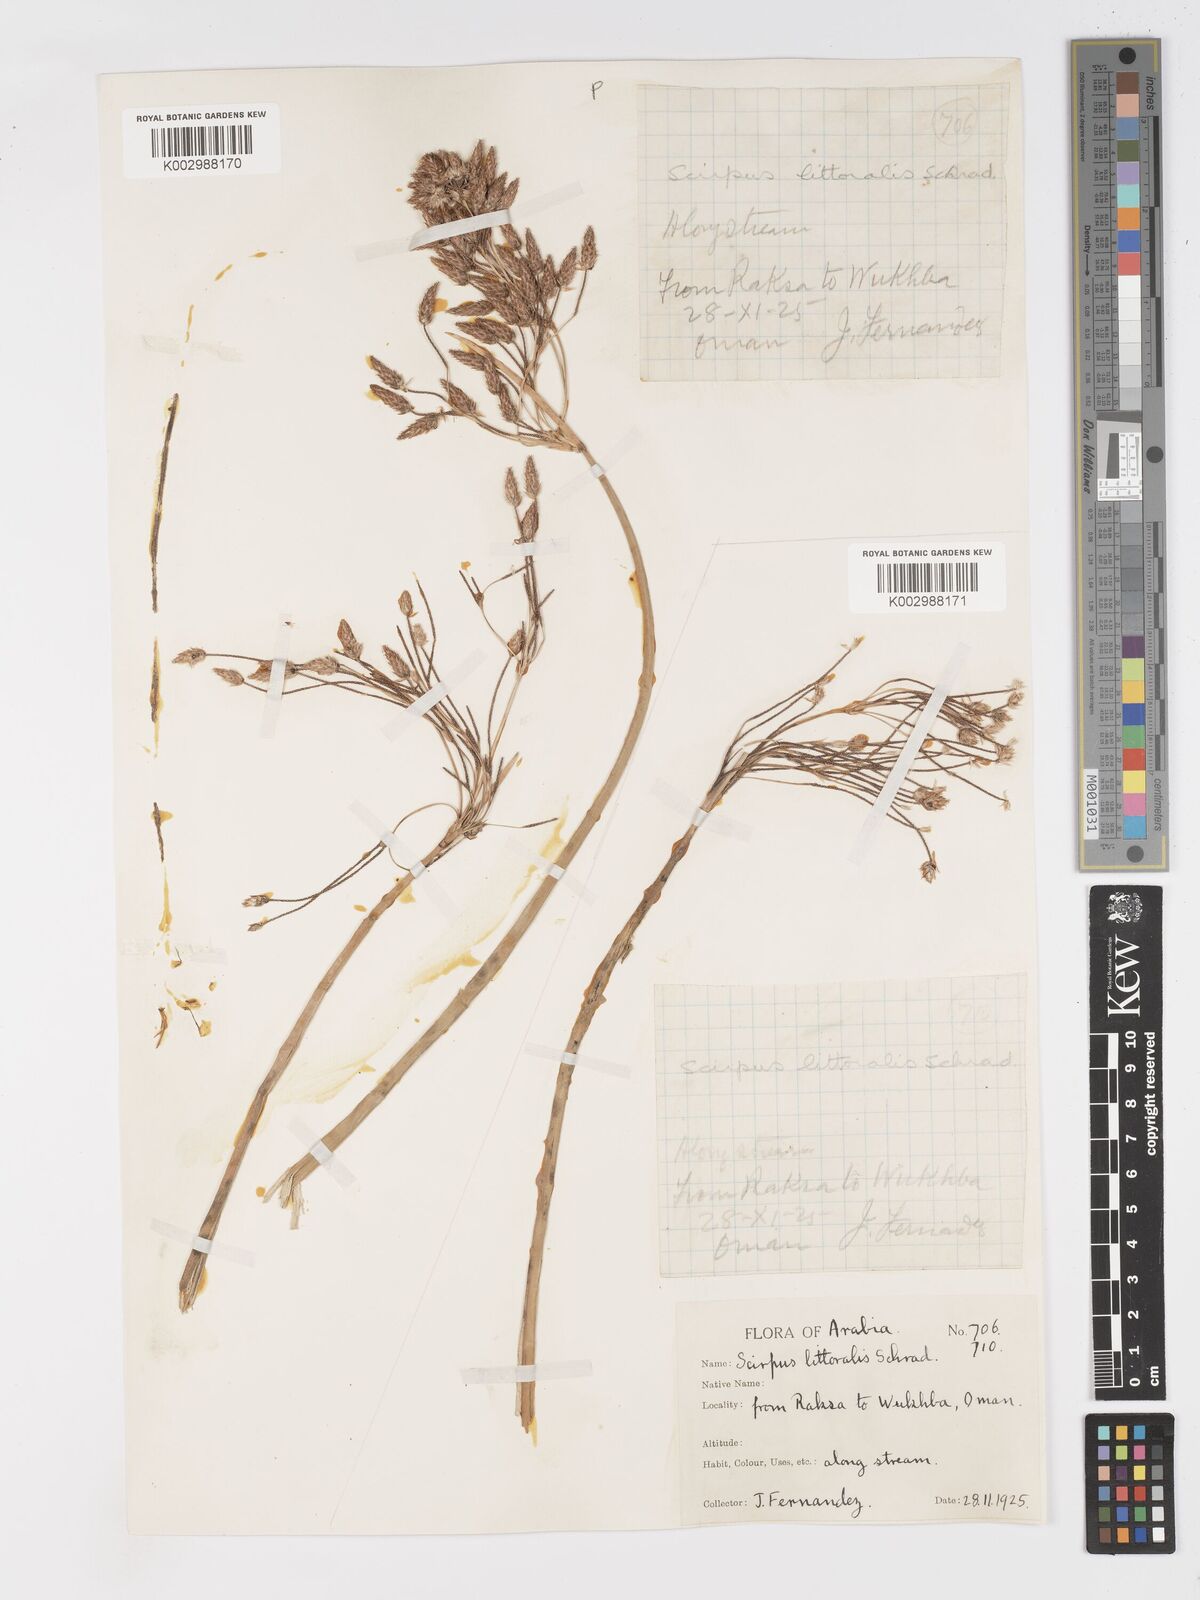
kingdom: Plantae
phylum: Tracheophyta
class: Liliopsida
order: Poales
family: Cyperaceae
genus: Schoenoplectus
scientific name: Schoenoplectus litoralis
